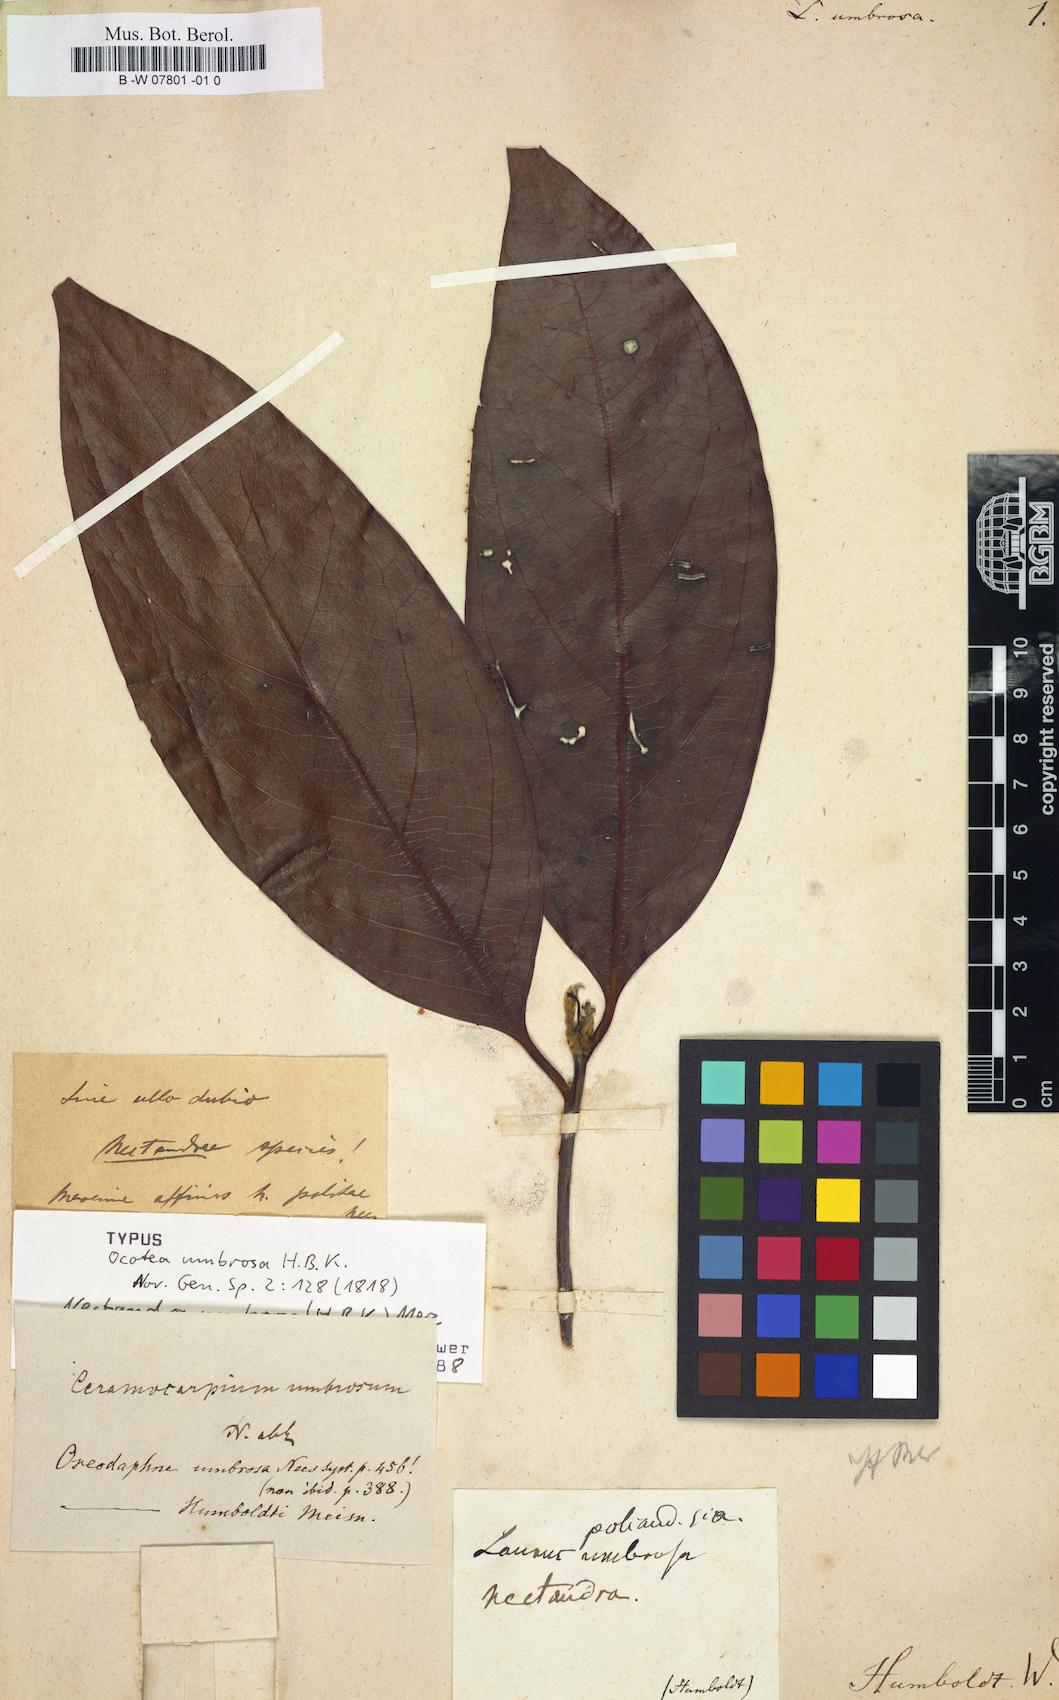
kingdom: Plantae
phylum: Tracheophyta
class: Magnoliopsida
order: Laurales
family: Lauraceae
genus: Damburneya
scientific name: Damburneya umbrosa
